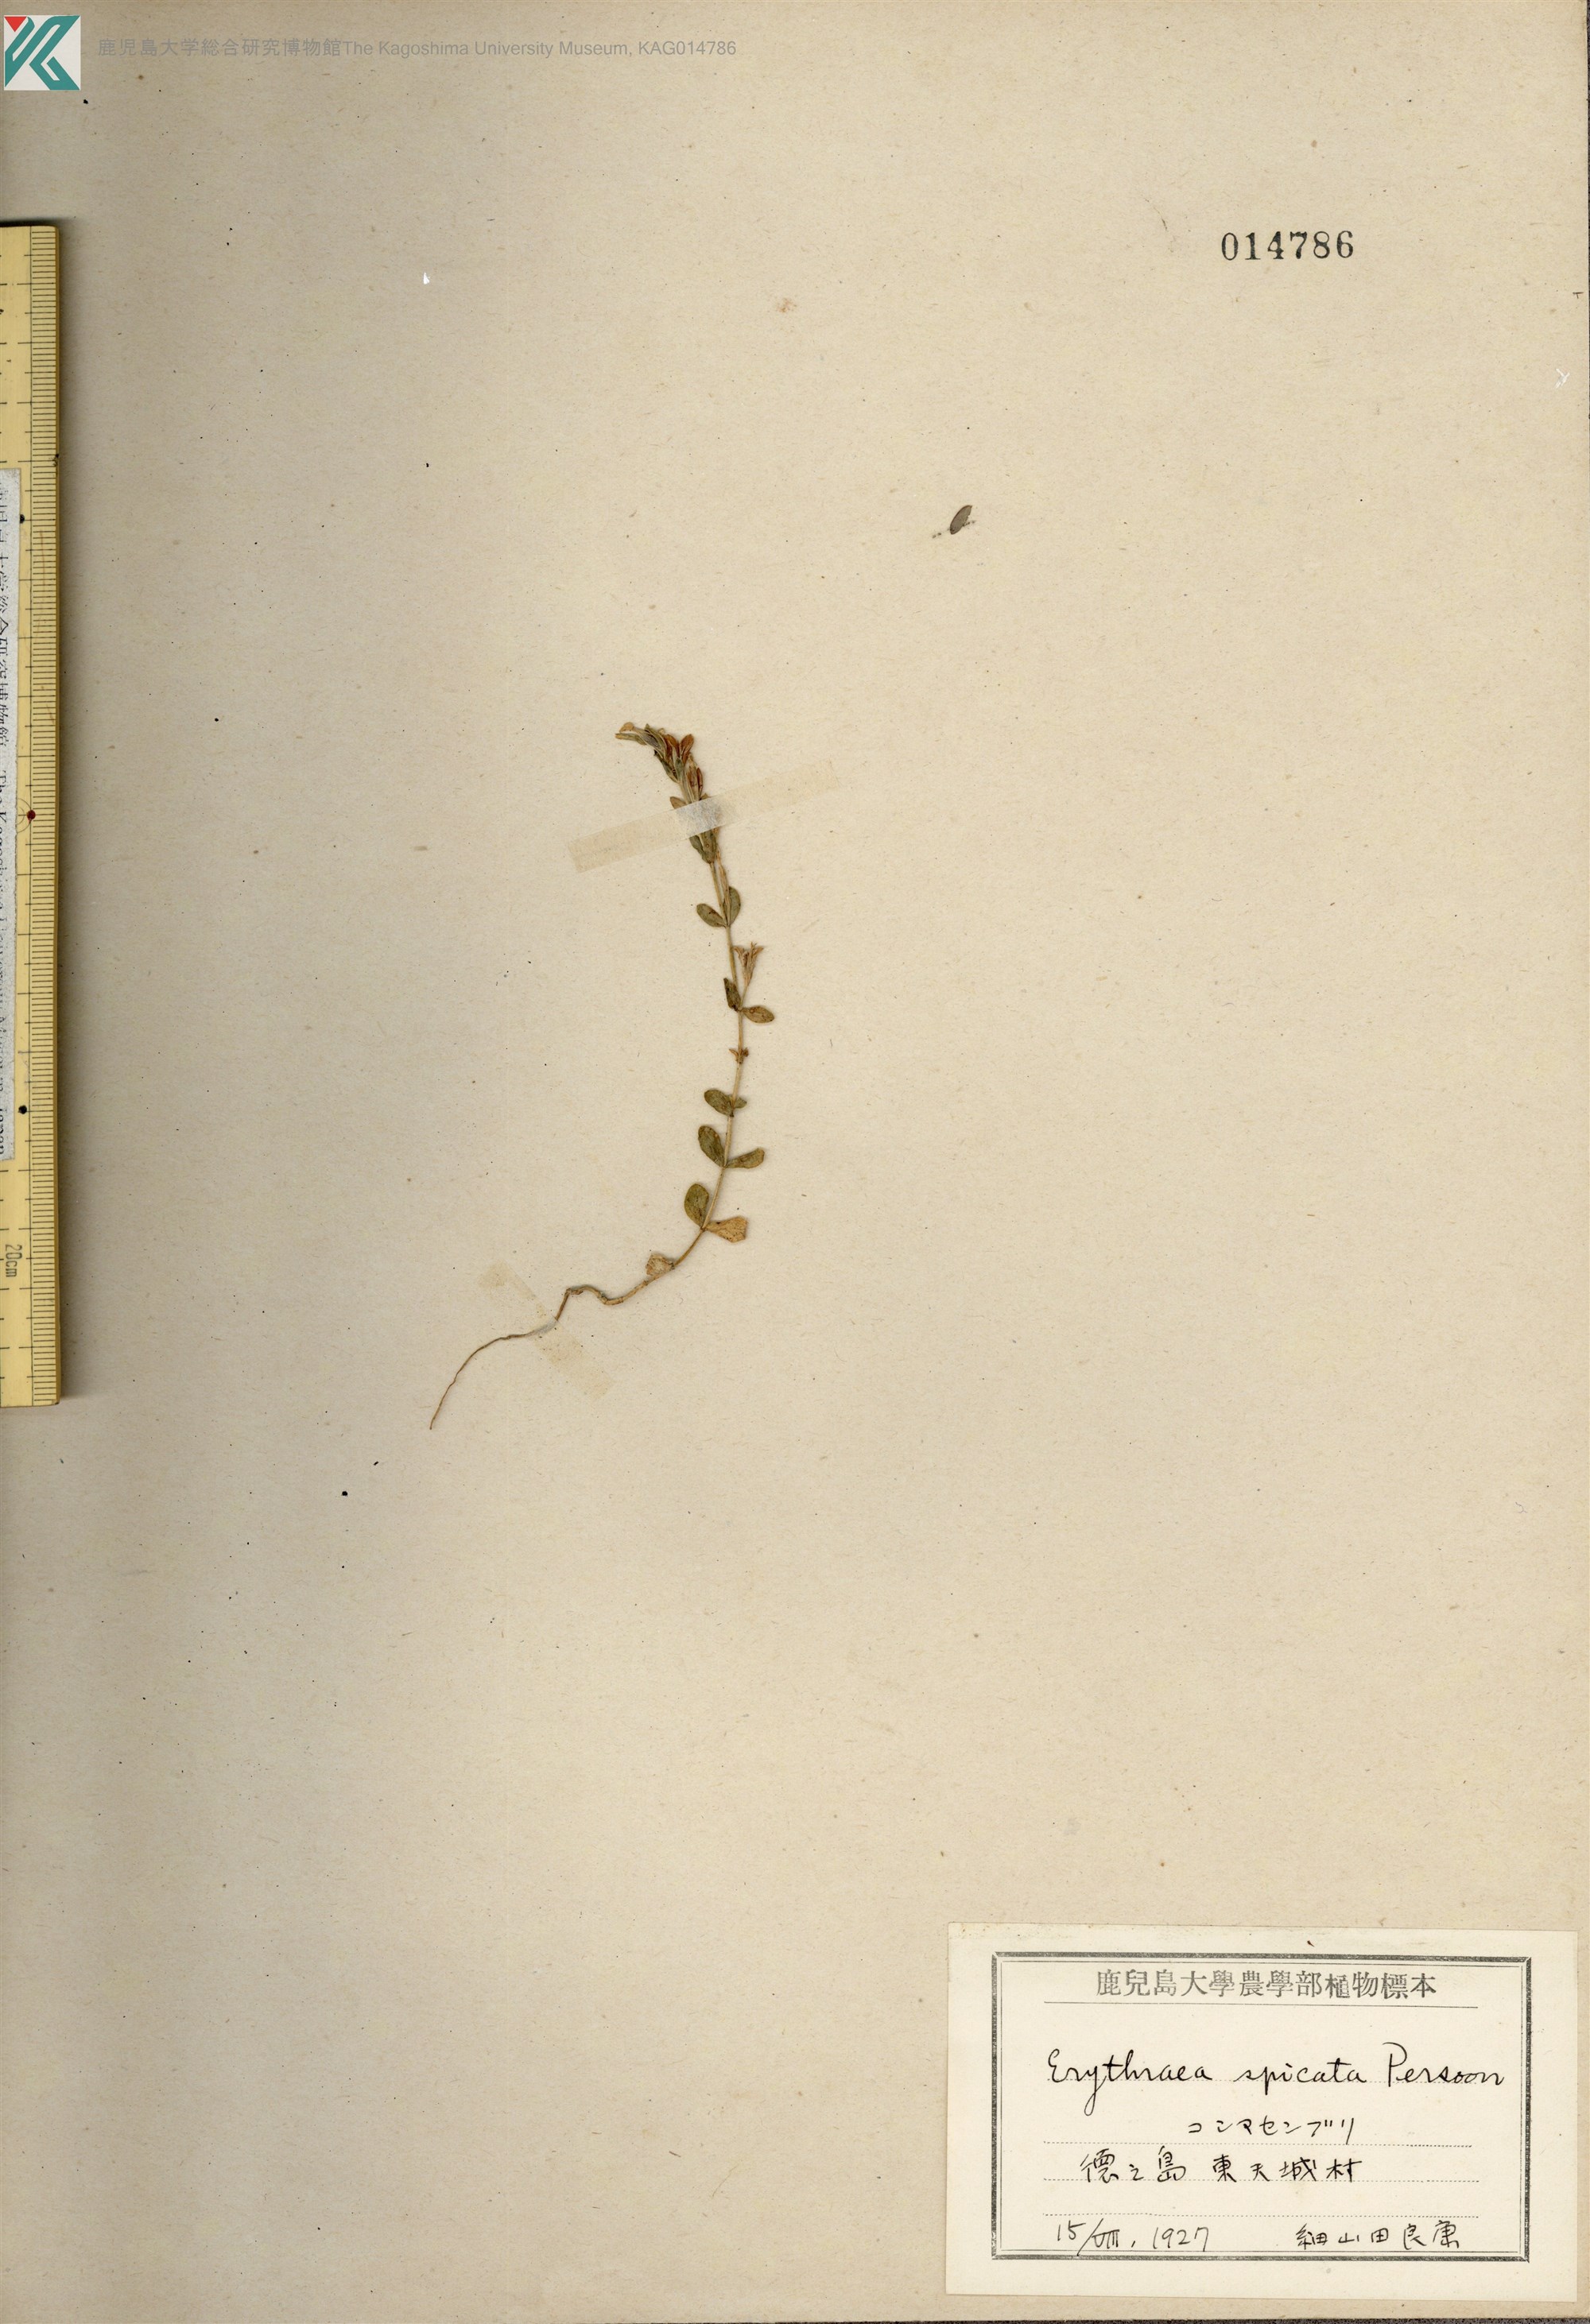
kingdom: Plantae
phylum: Tracheophyta
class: Magnoliopsida
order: Gentianales
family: Gentianaceae
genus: Schenkia
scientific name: Schenkia japonica
